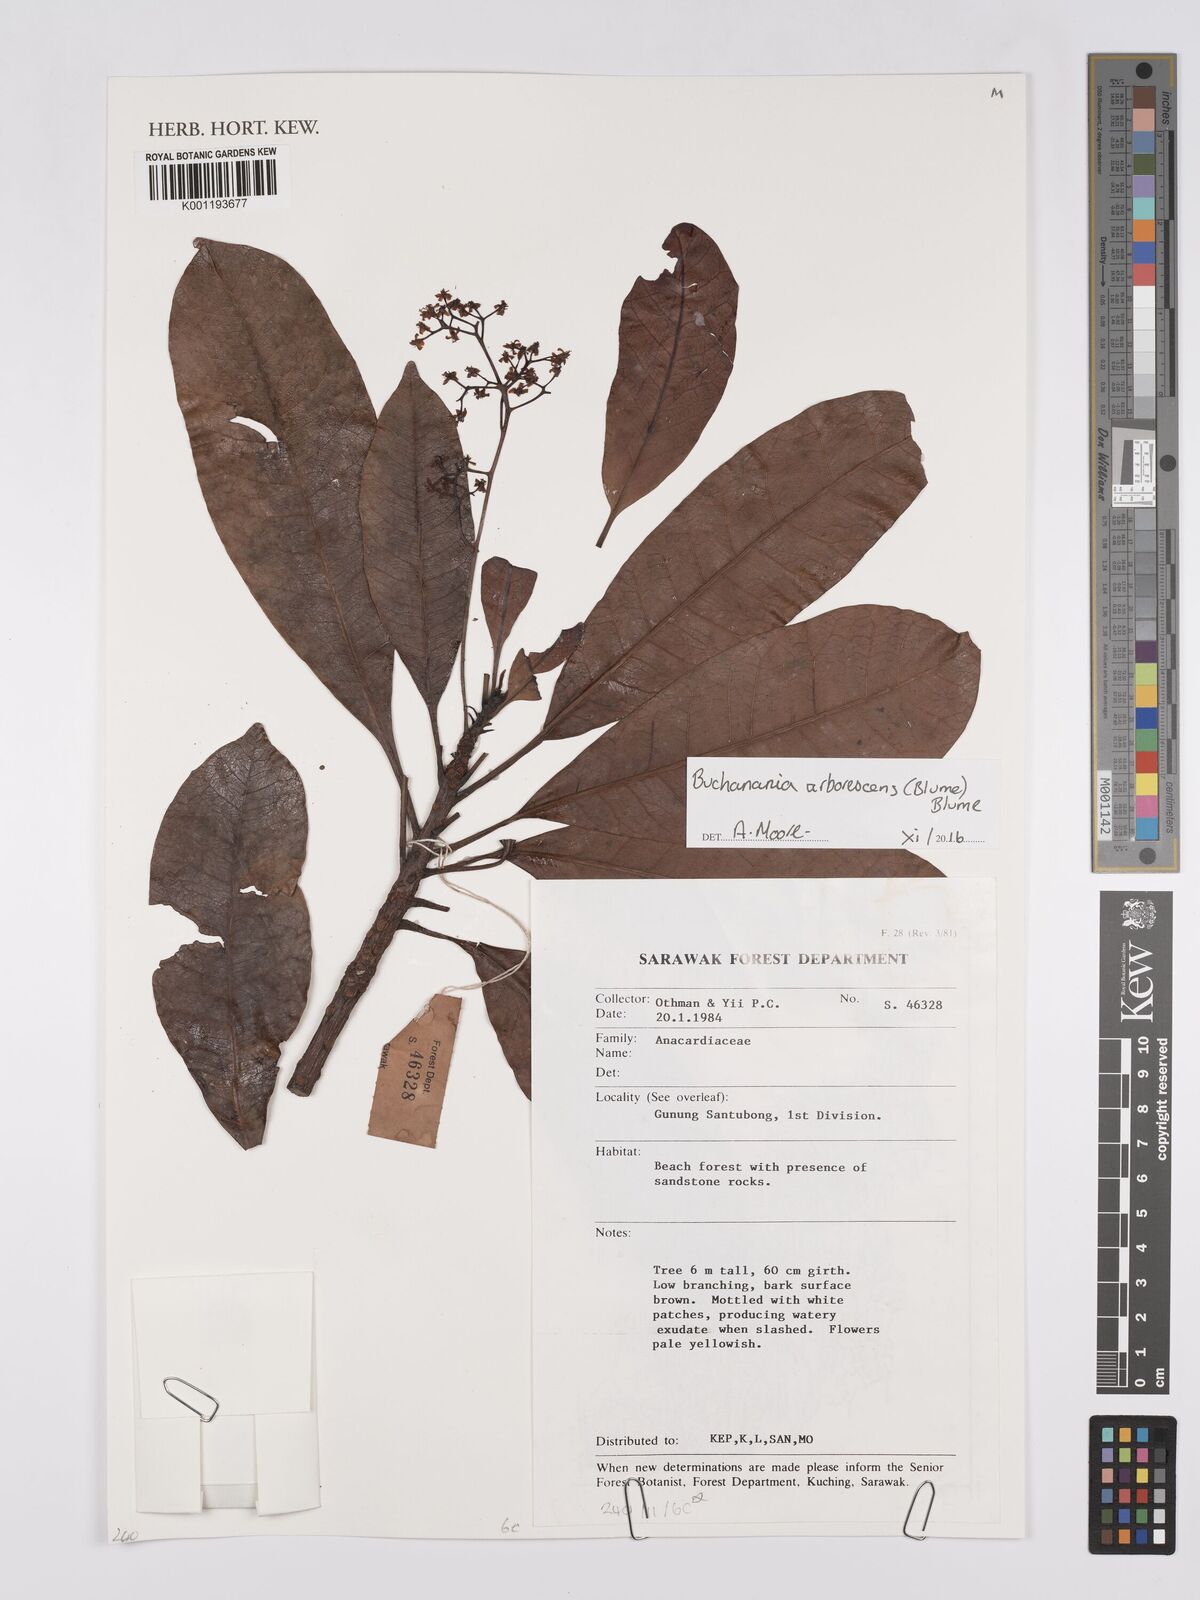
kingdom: Plantae
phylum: Tracheophyta
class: Magnoliopsida
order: Sapindales
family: Anacardiaceae
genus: Buchanania
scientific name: Buchanania arborescens
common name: Sparrow’s mango
